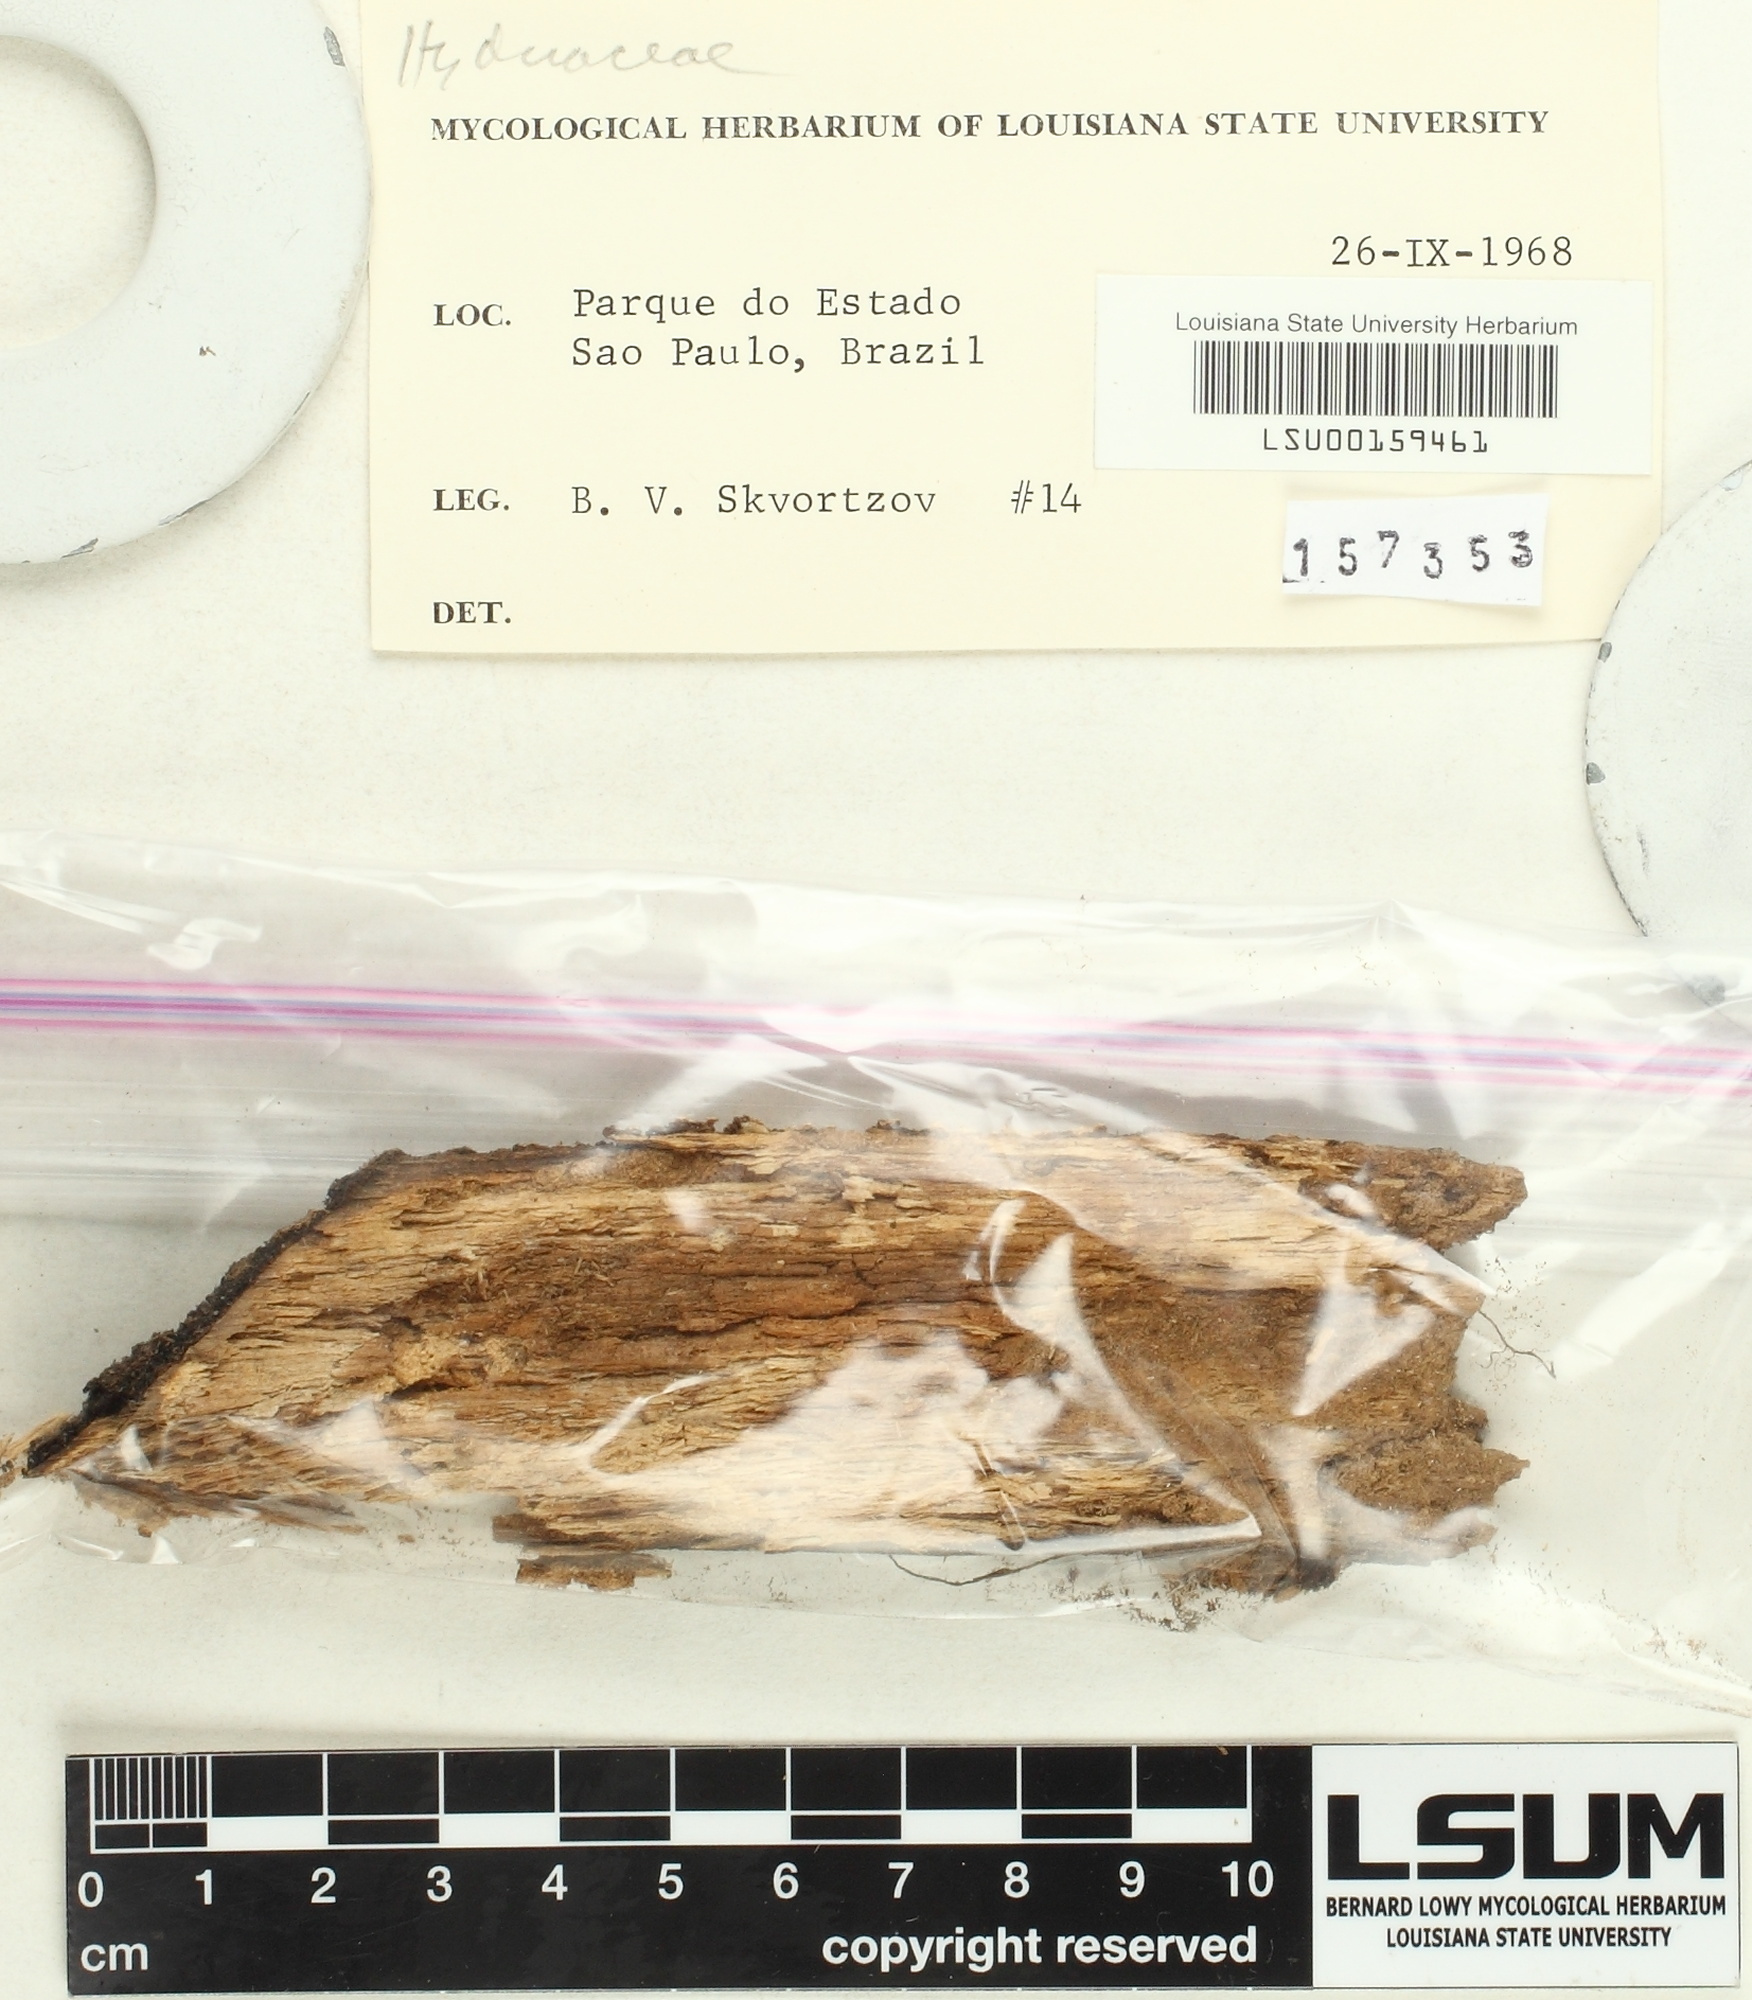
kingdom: Fungi
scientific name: Fungi
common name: Fungi
